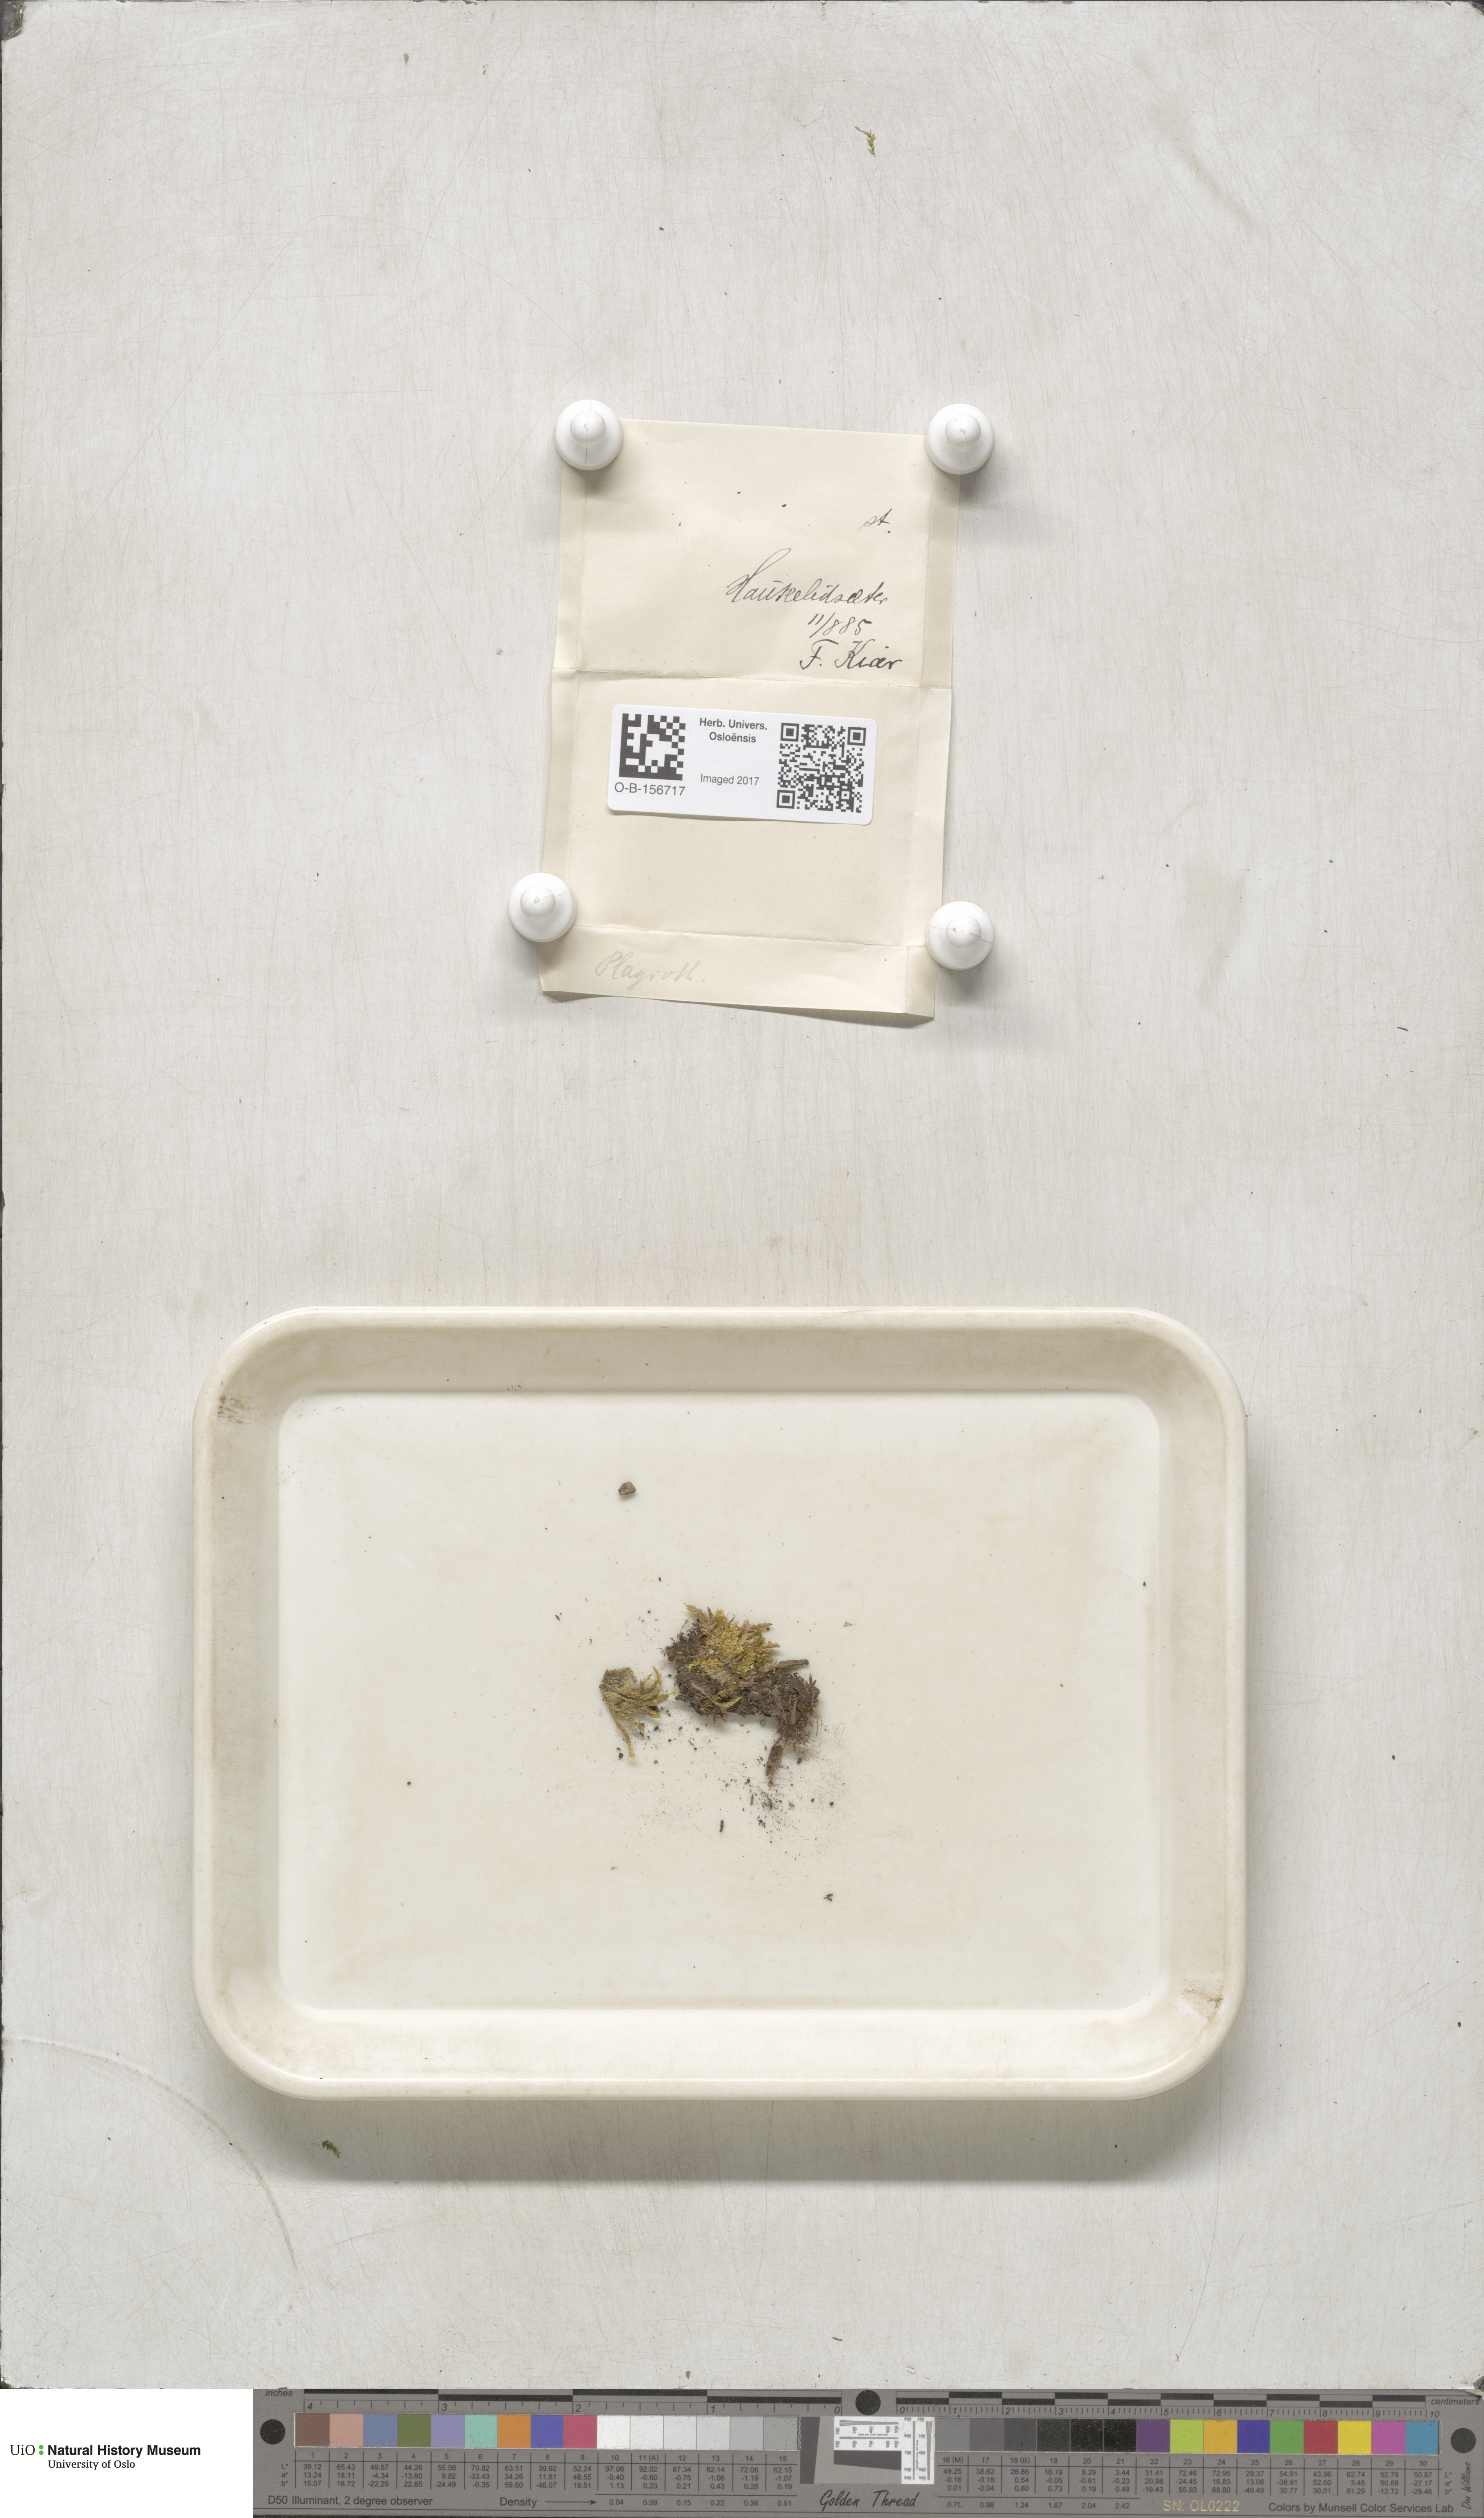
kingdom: Plantae
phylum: Bryophyta
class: Bryopsida
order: Hypnales
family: Plagiotheciaceae
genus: Plagiothecium
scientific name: Plagiothecium
